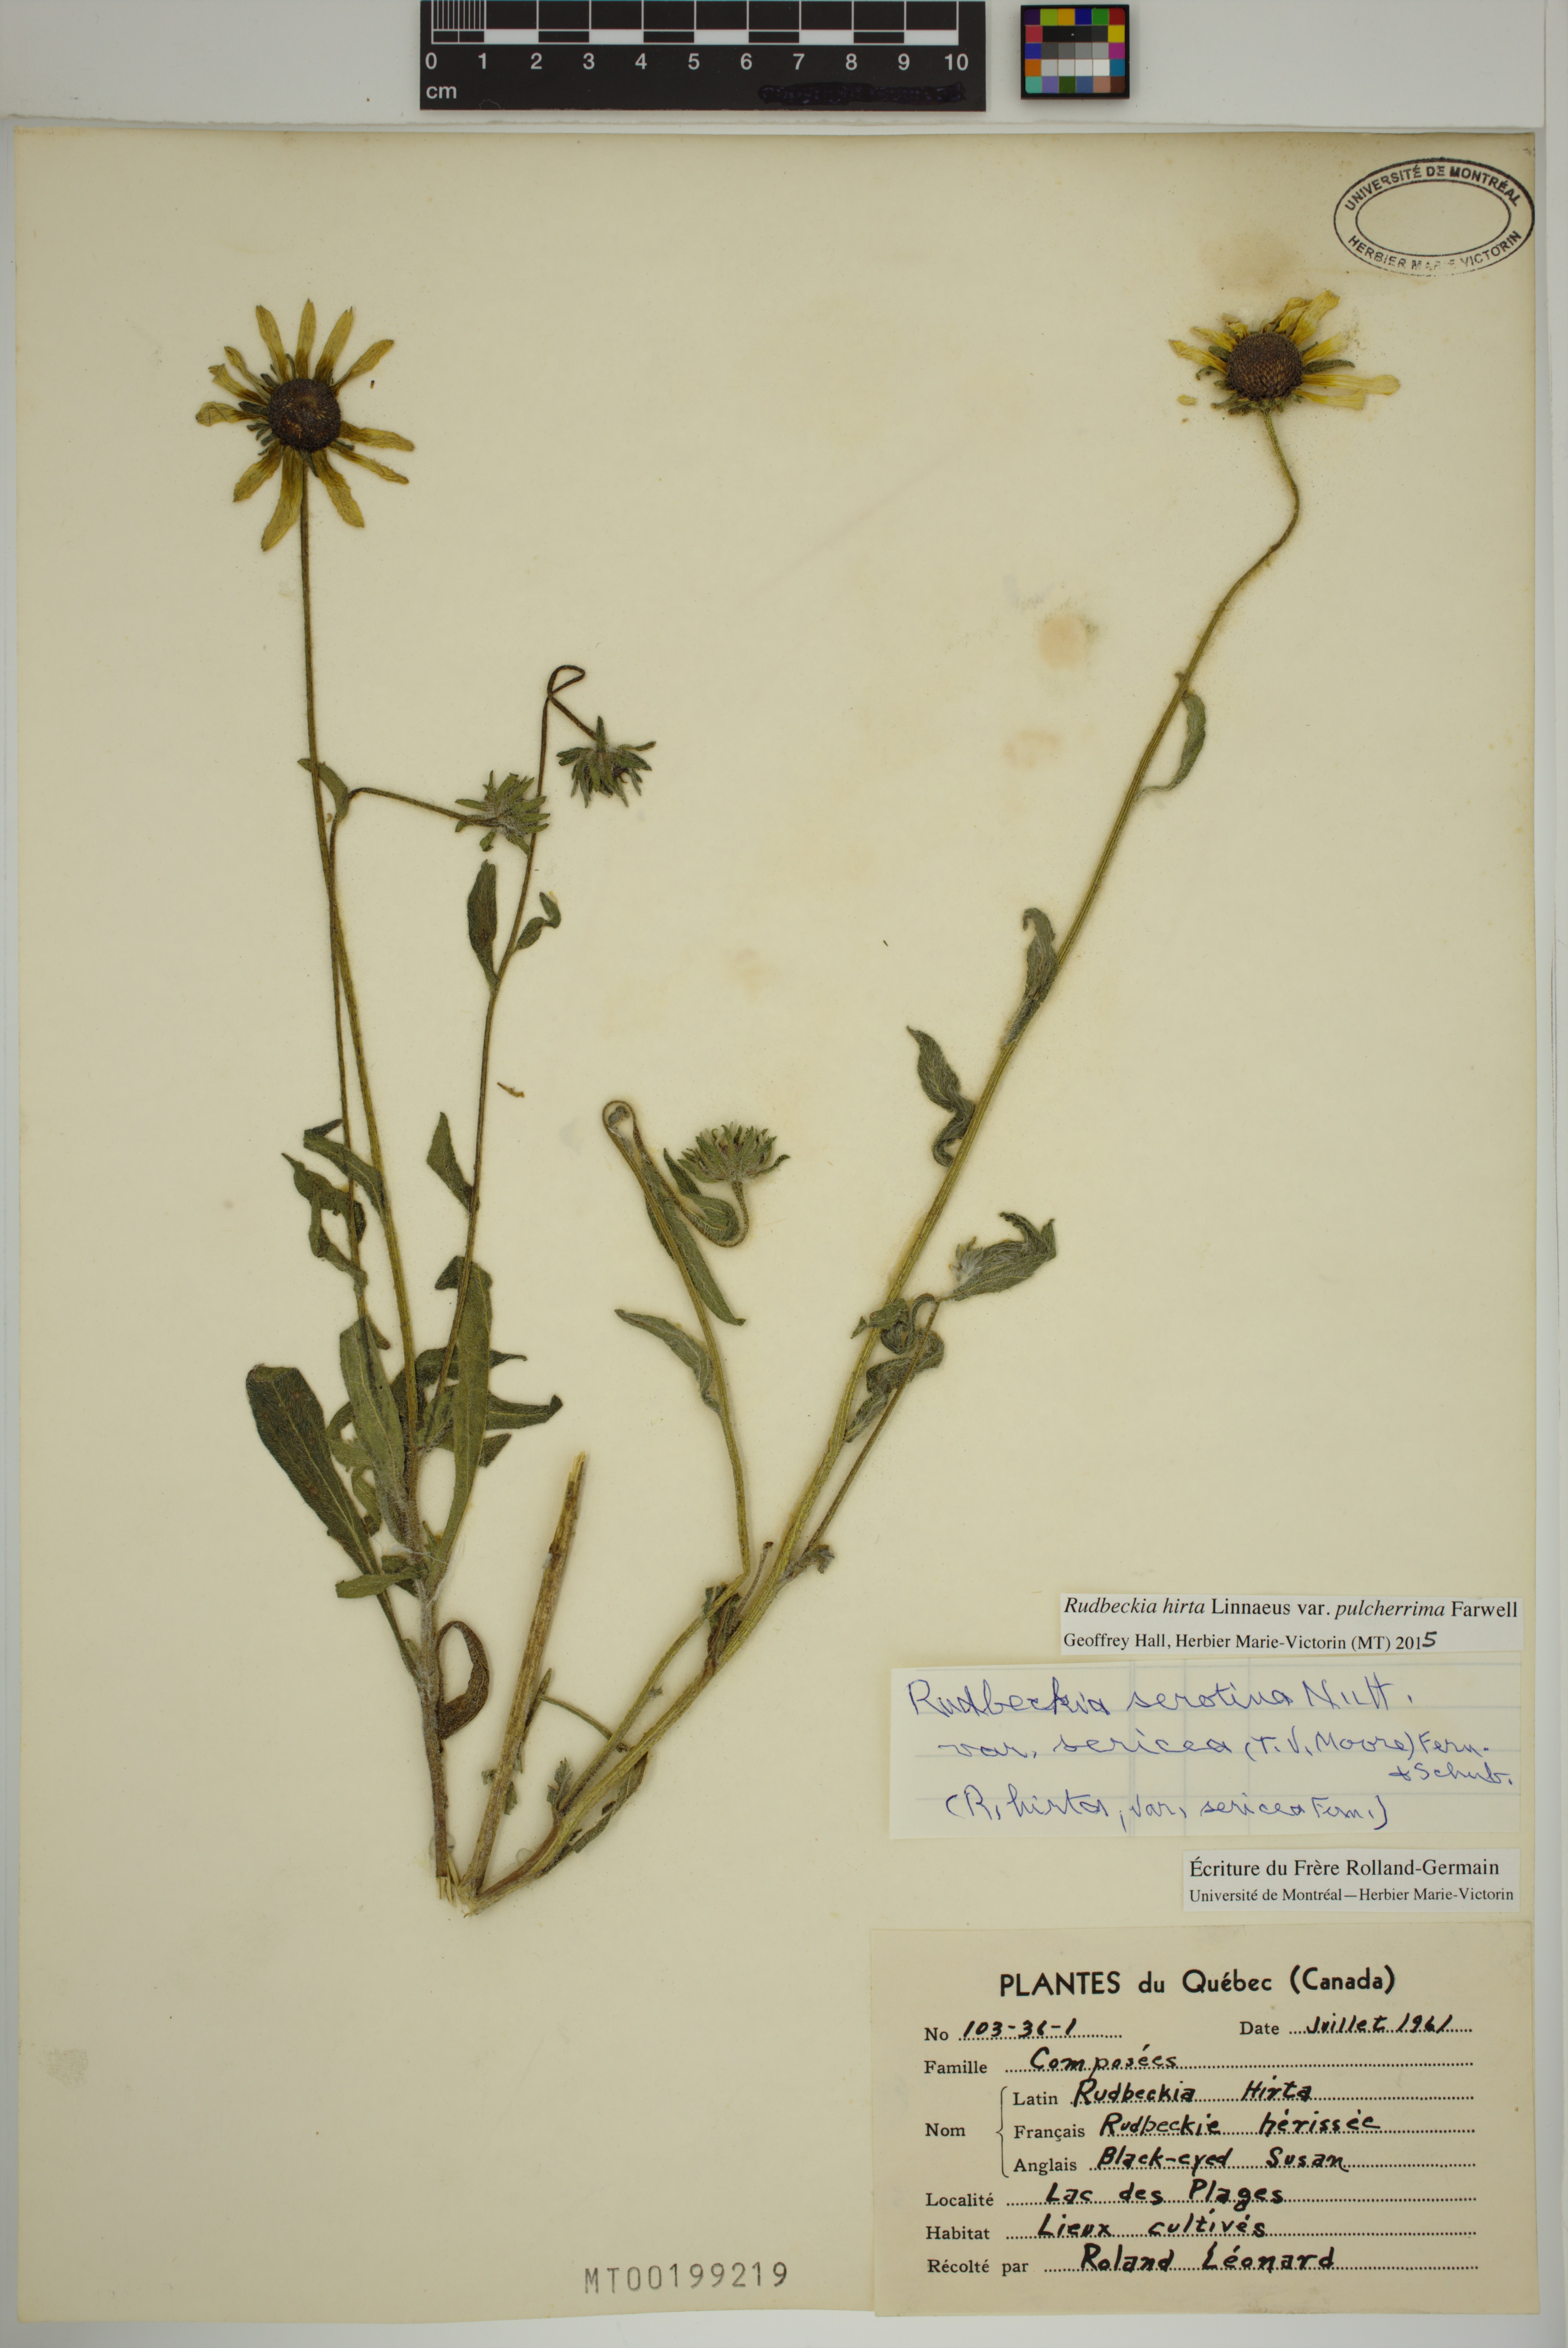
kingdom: Plantae
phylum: Tracheophyta
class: Magnoliopsida
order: Asterales
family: Asteraceae
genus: Rudbeckia
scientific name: Rudbeckia hirta
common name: Black-eyed-susan
